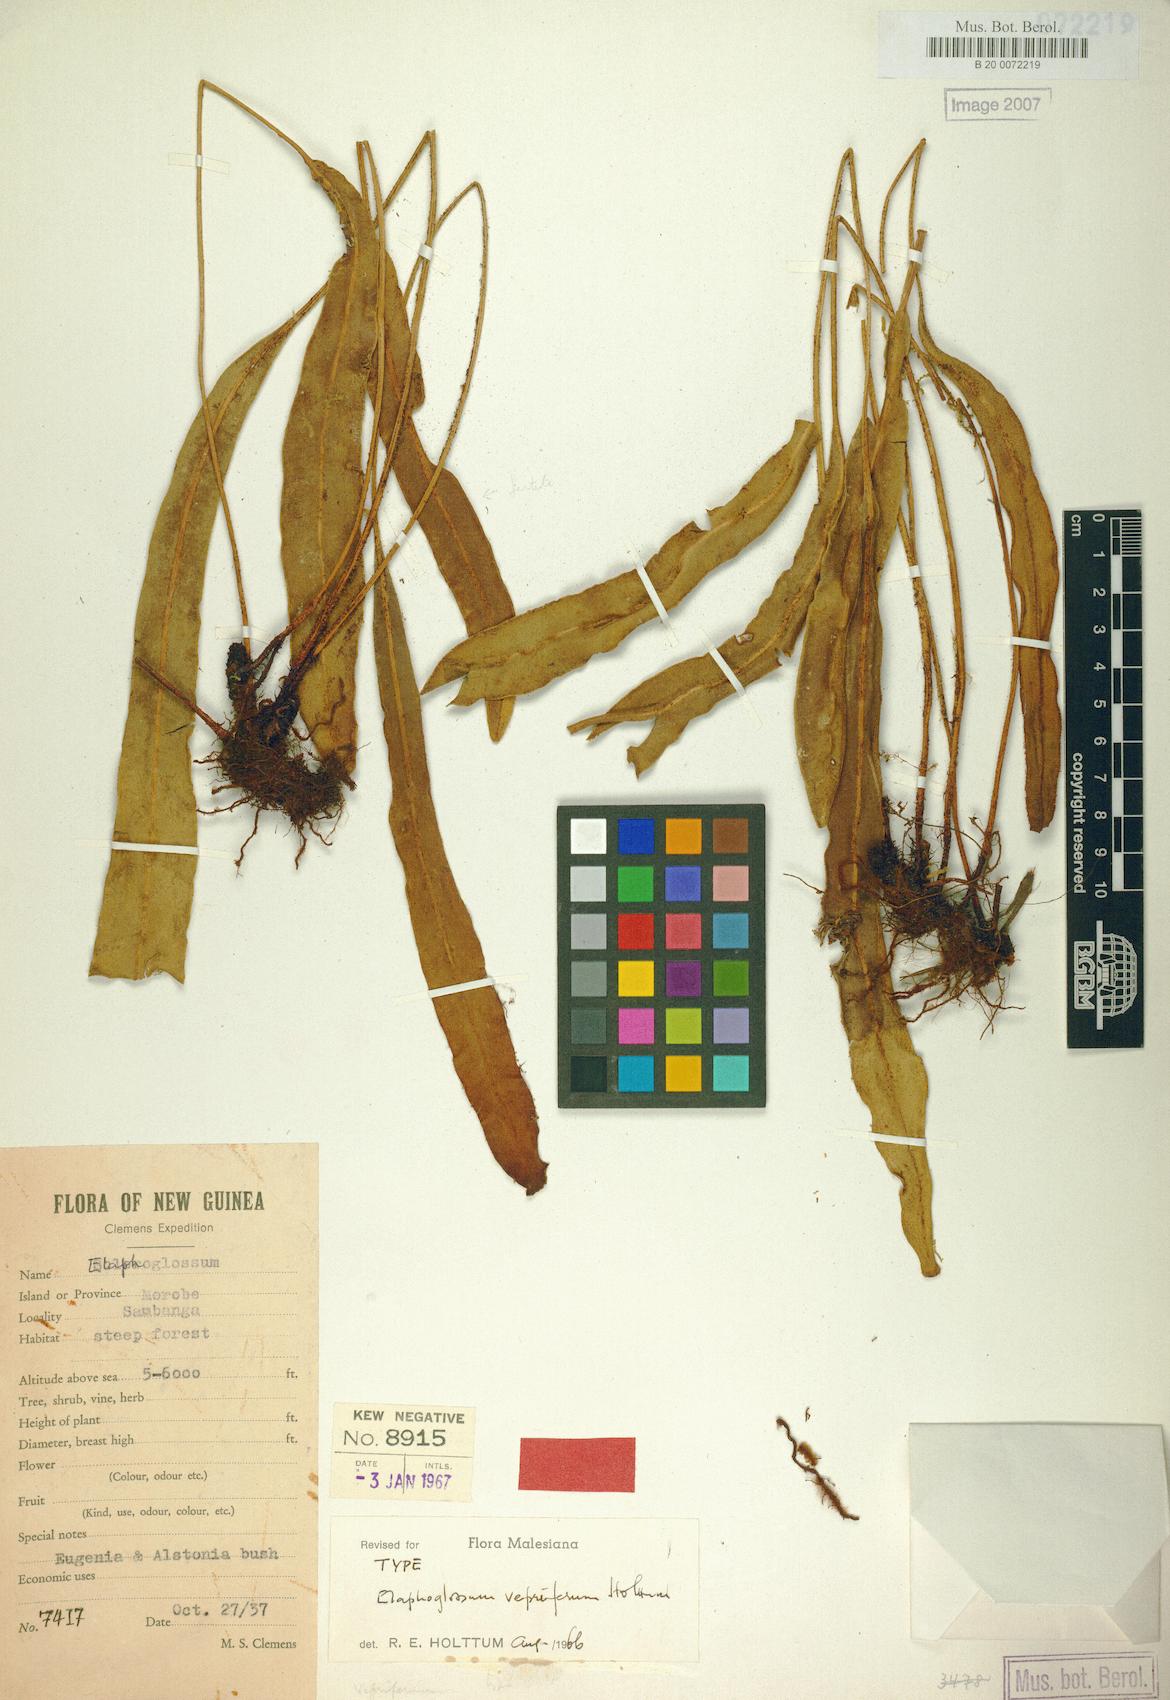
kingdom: Plantae
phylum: Tracheophyta
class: Polypodiopsida
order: Polypodiales
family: Dryopteridaceae
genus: Elaphoglossum
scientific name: Elaphoglossum vepriferum
